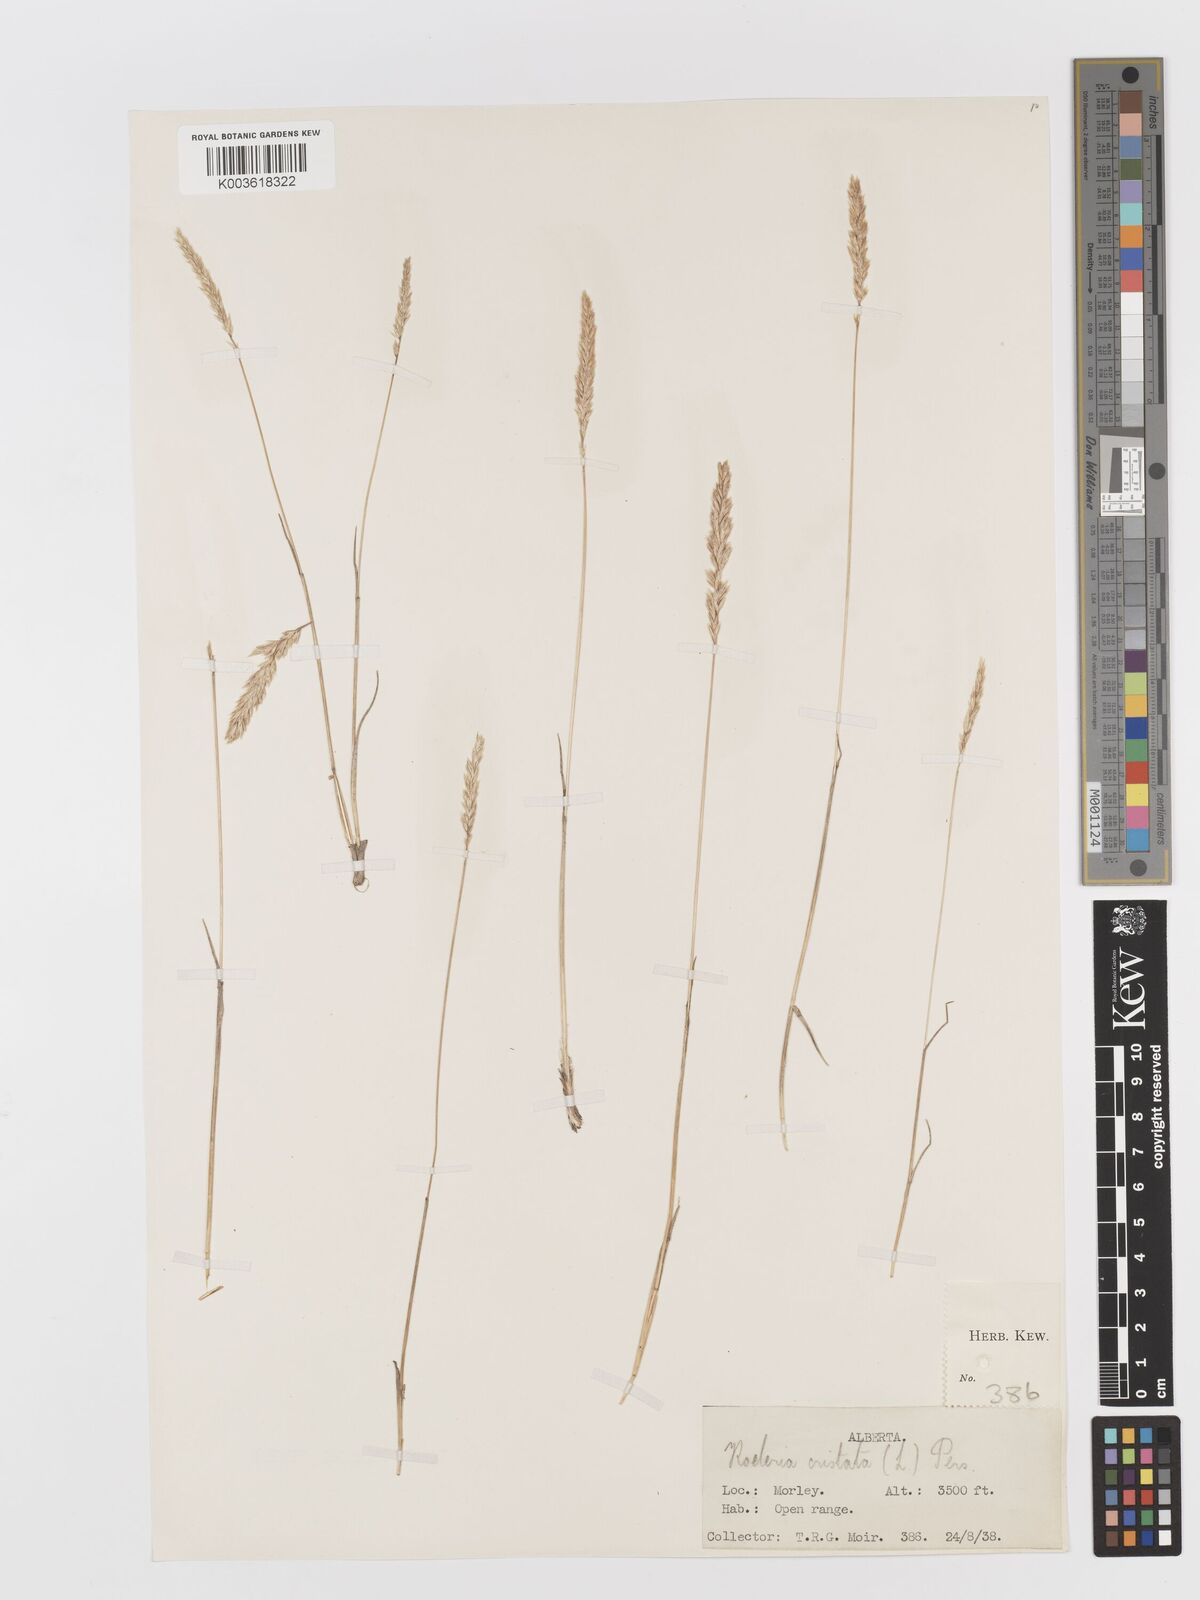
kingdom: Plantae
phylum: Tracheophyta
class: Liliopsida
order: Poales
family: Poaceae
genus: Koeleria
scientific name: Koeleria
